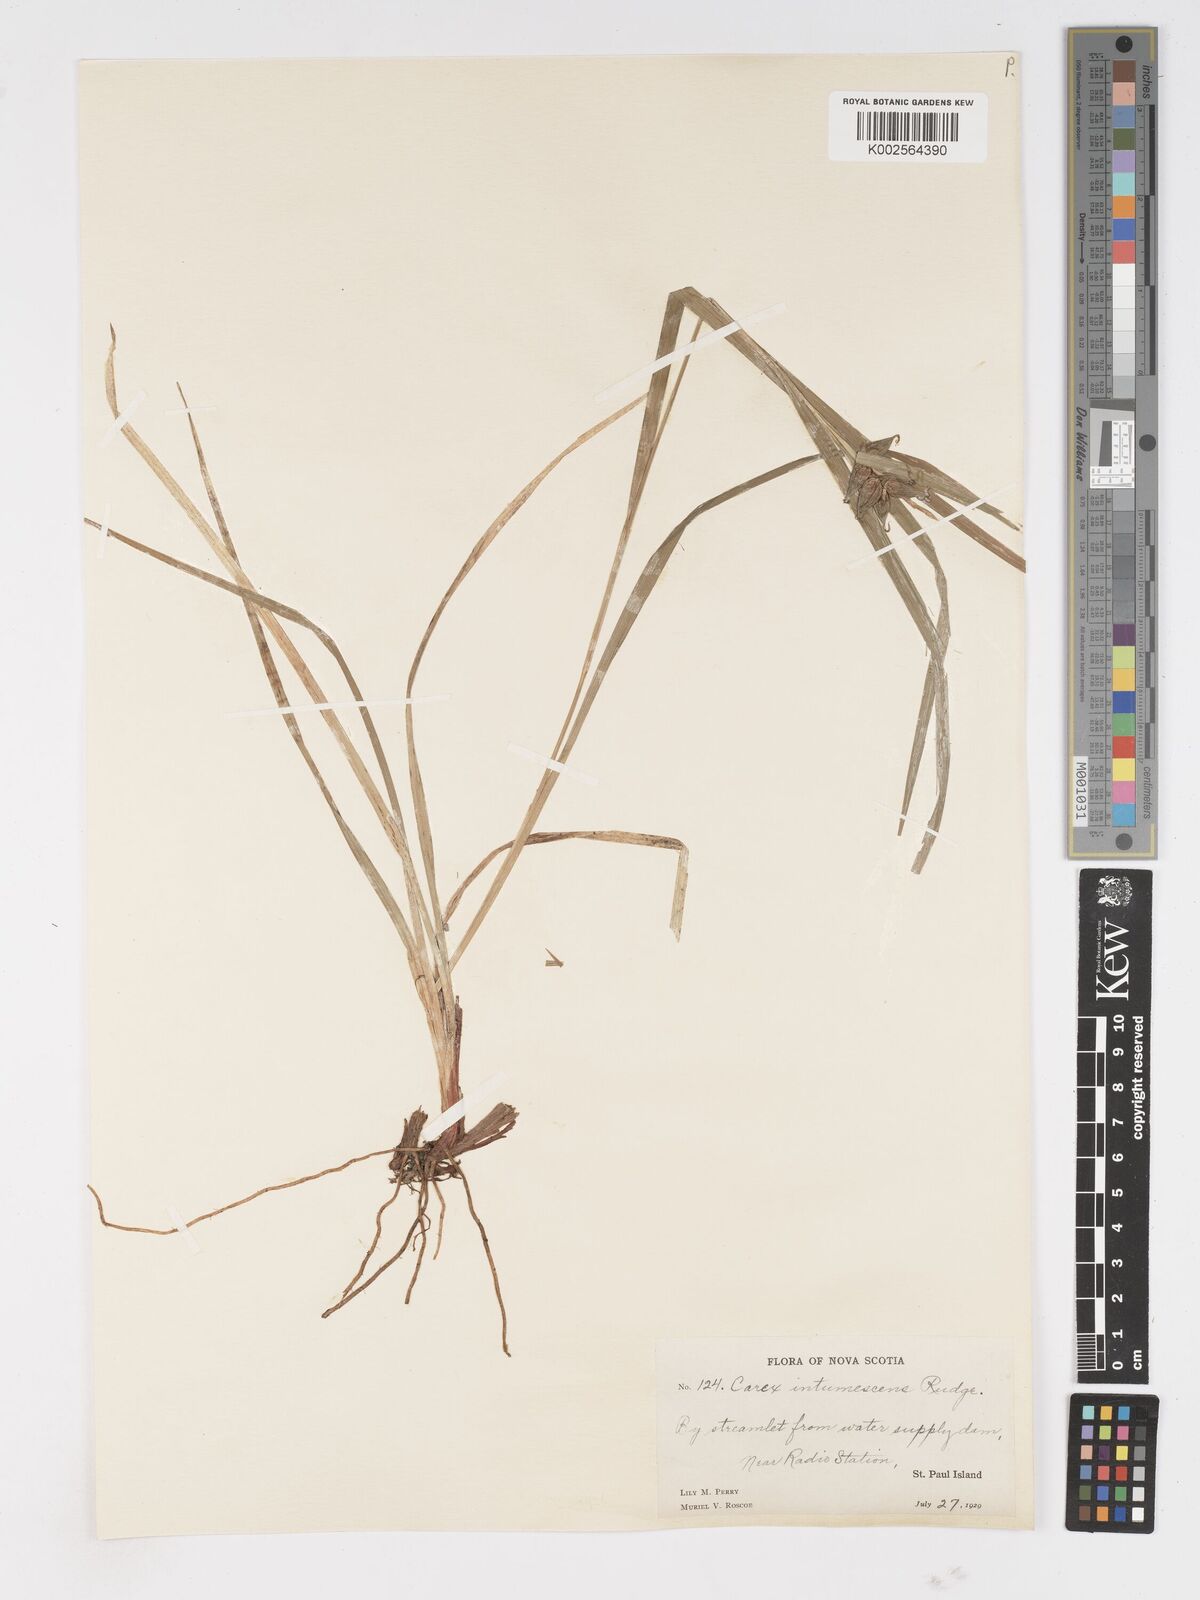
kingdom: Plantae
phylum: Tracheophyta
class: Liliopsida
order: Poales
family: Cyperaceae
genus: Carex
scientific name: Carex intumescens
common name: Greater bladder sedge
